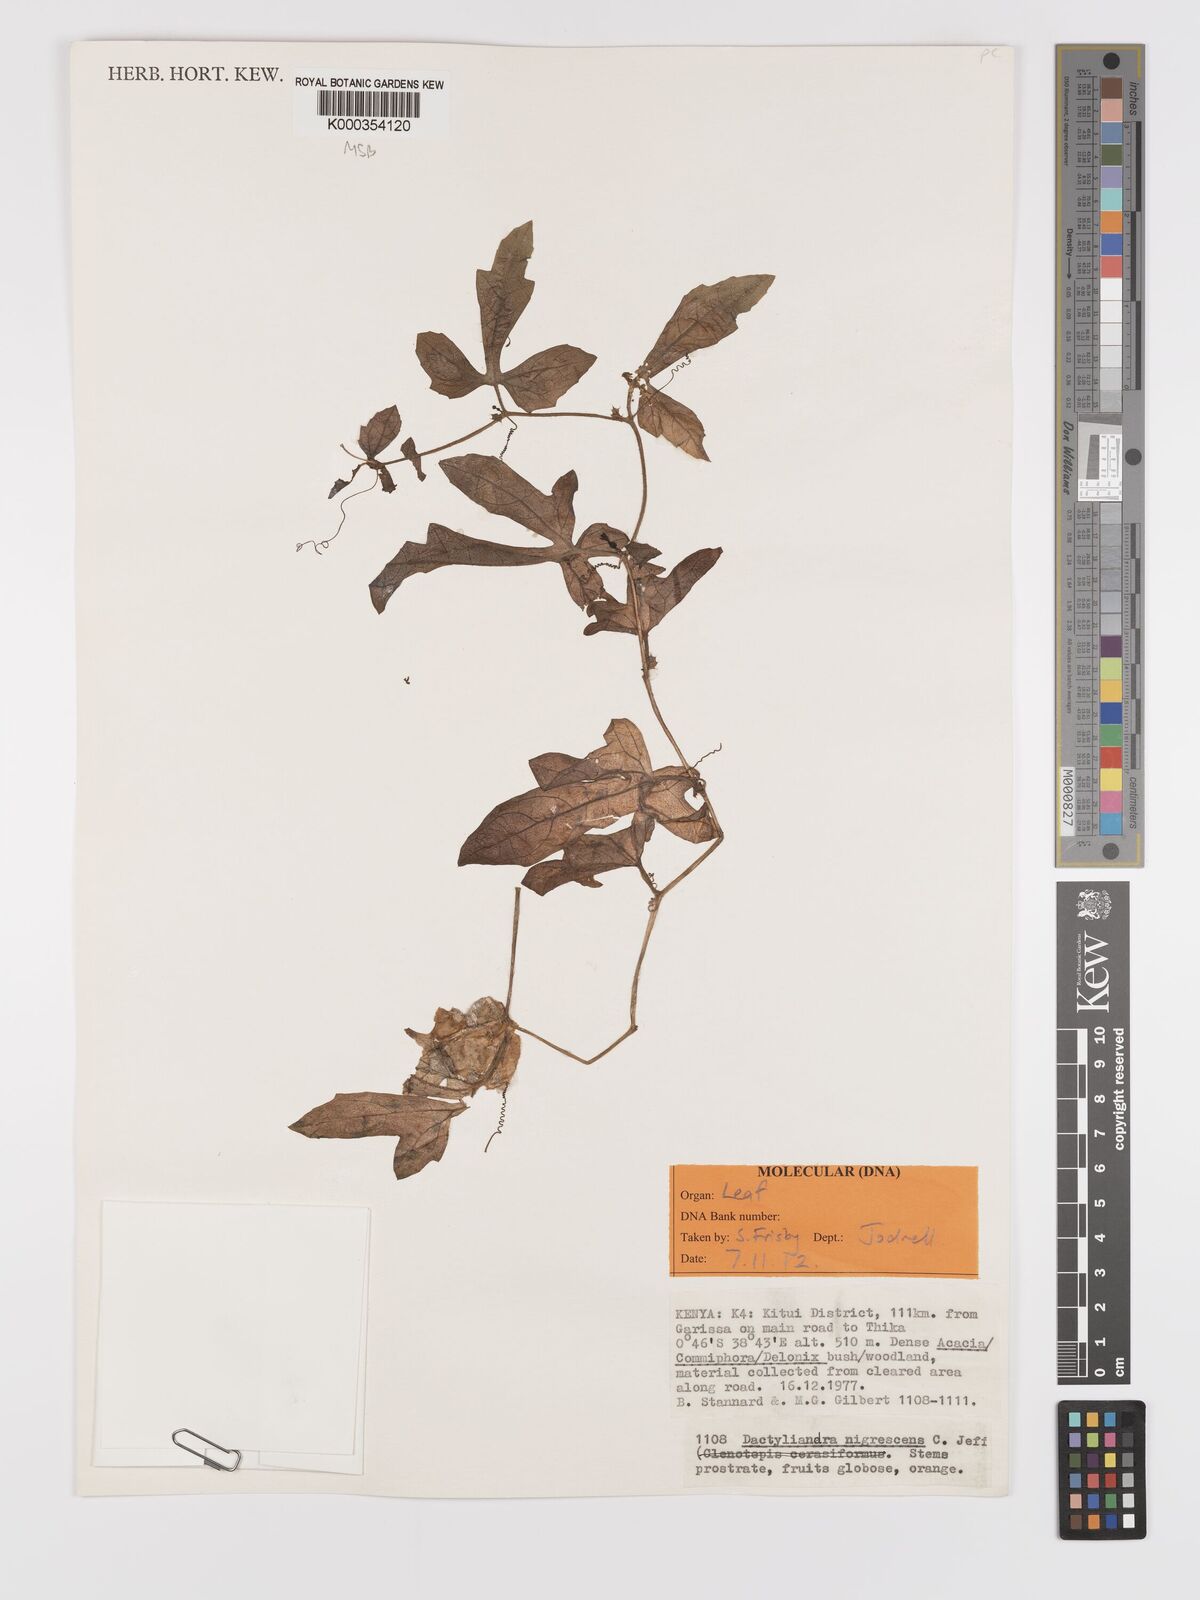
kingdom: Plantae
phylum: Tracheophyta
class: Magnoliopsida
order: Cucurbitales
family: Cucurbitaceae
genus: Trochomeria
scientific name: Trochomeria nigrescens
